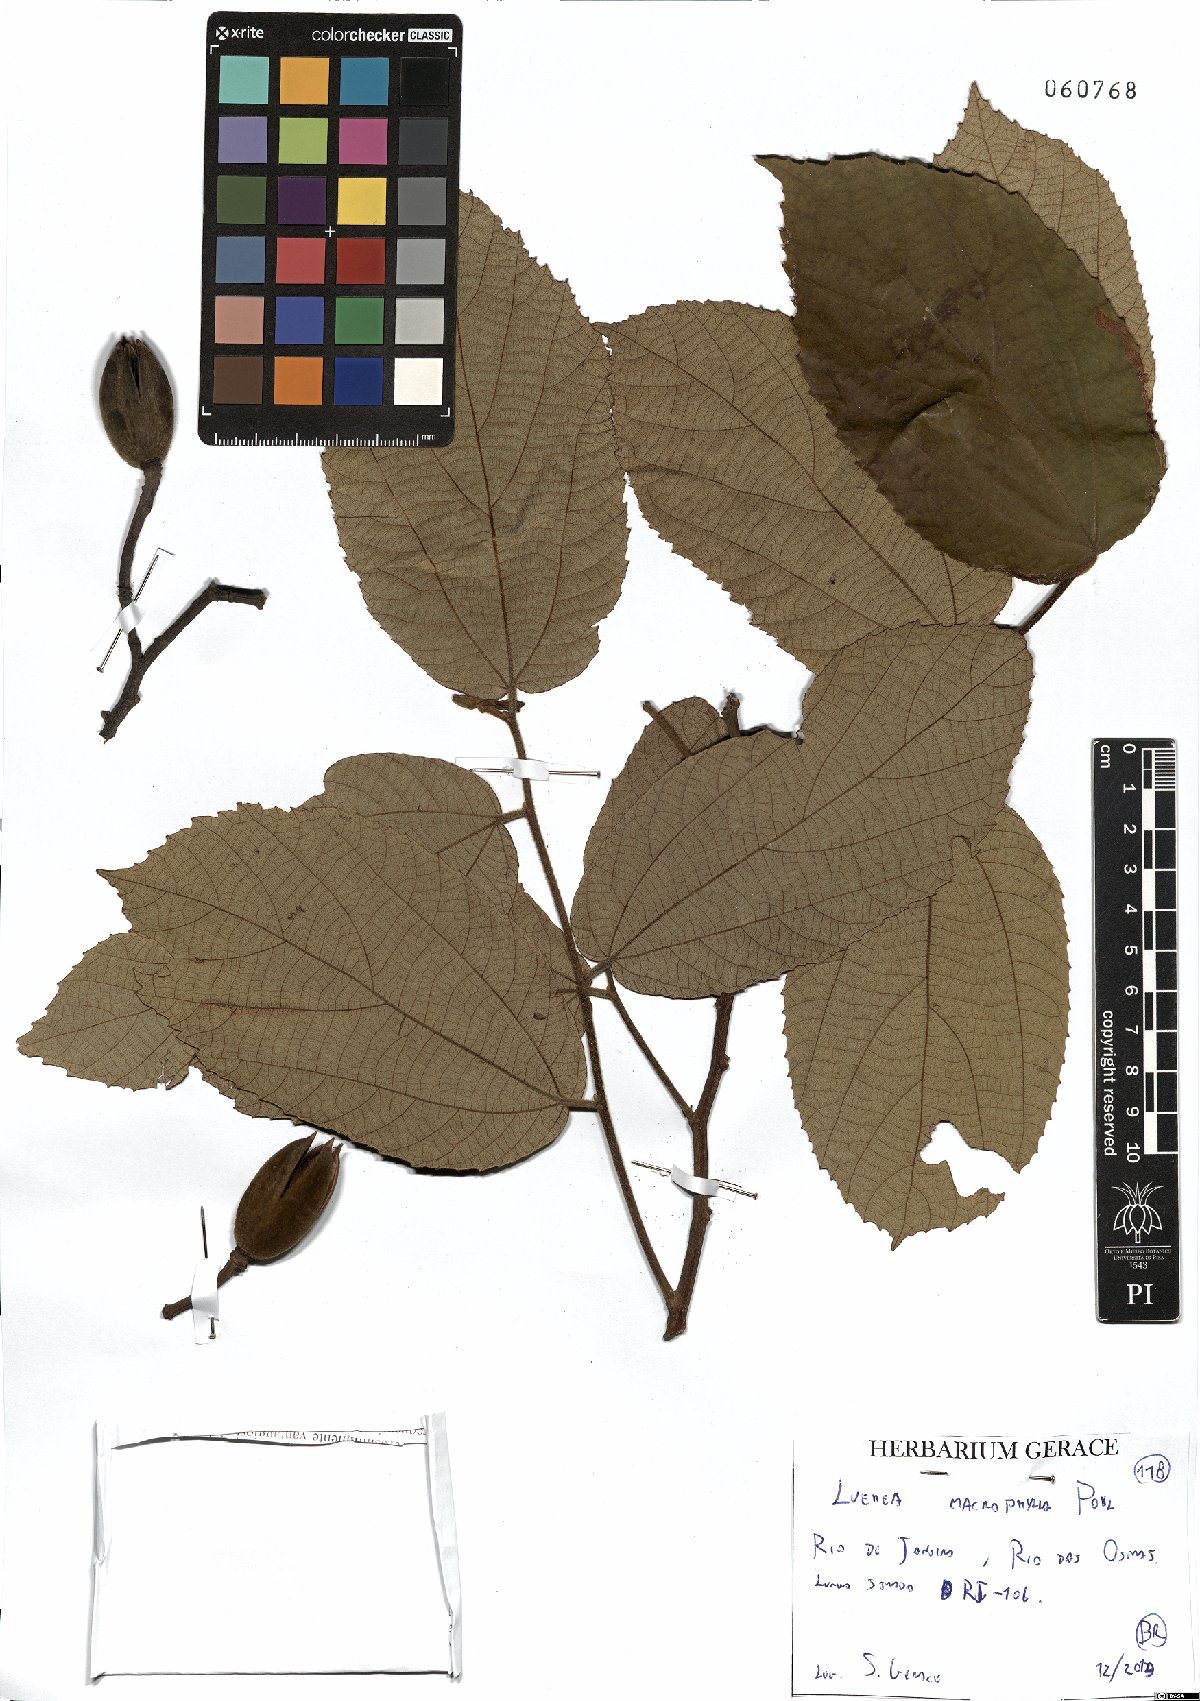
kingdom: Plantae
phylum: Tracheophyta
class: Magnoliopsida
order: Malvales
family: Malvaceae
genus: Luehea
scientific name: Luehea speciosa
